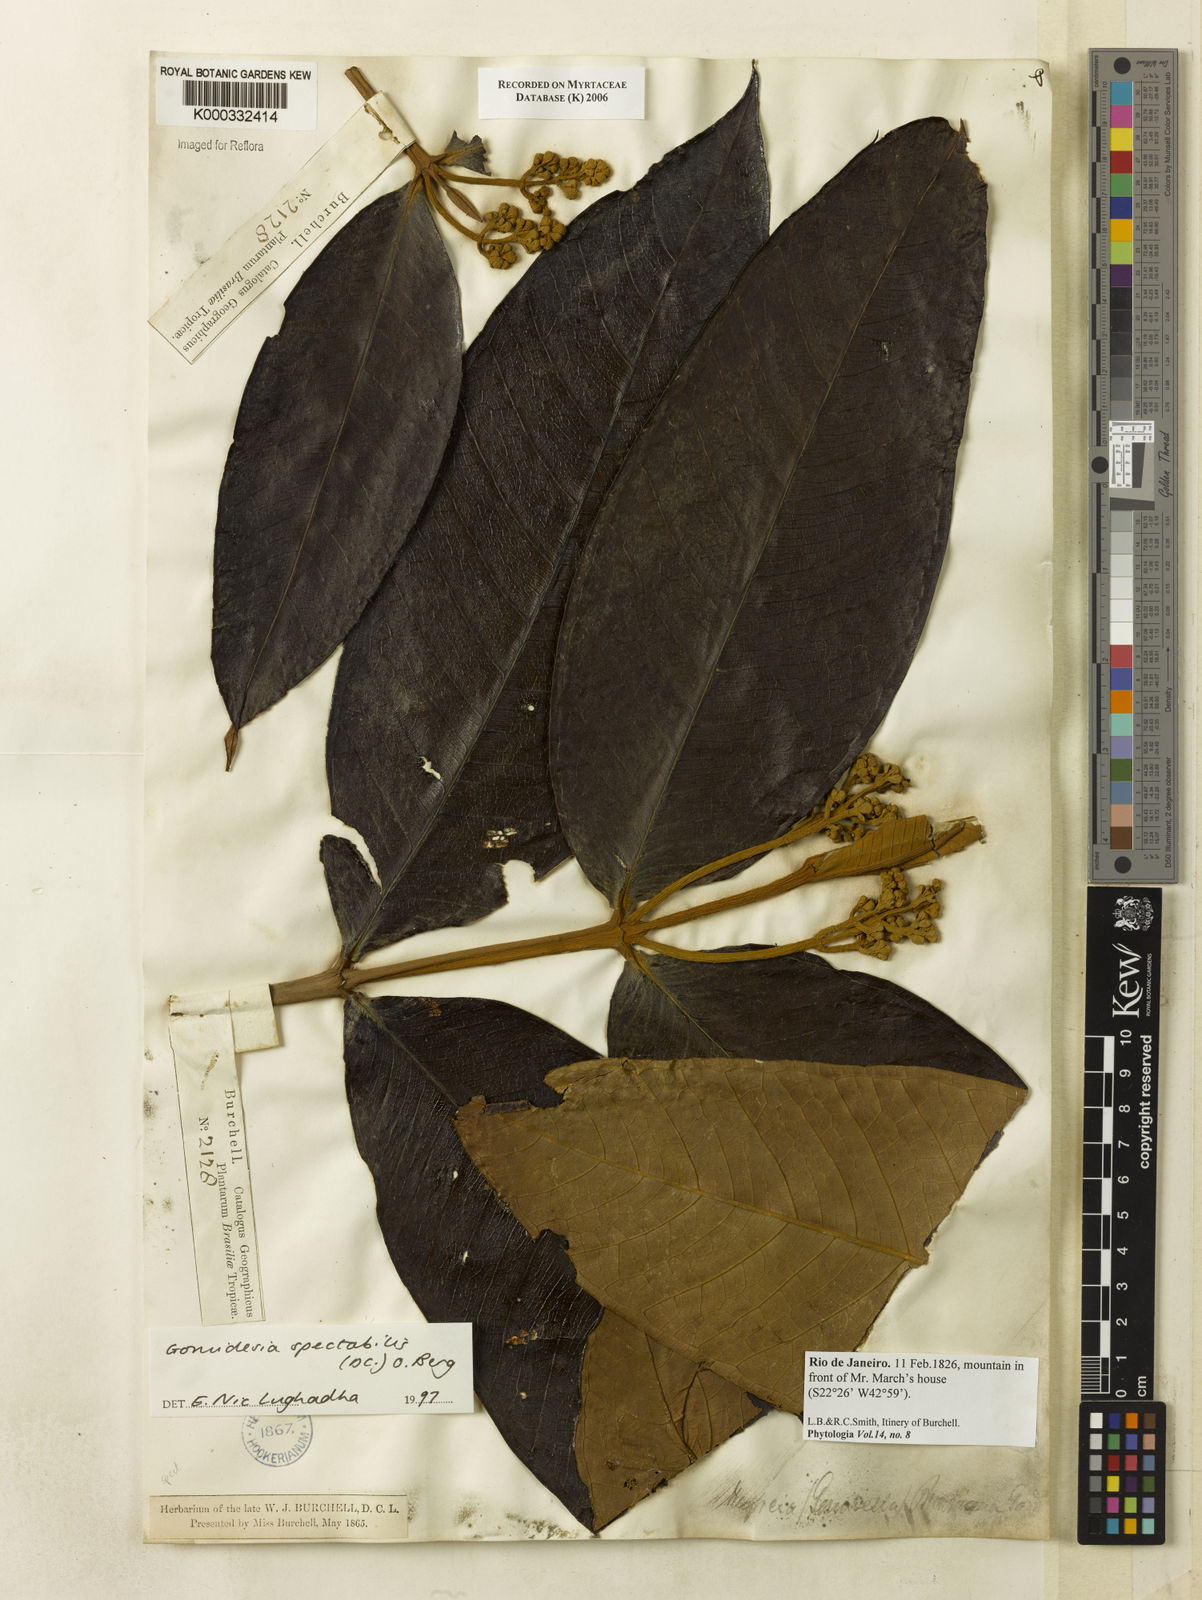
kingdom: Plantae
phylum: Tracheophyta
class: Magnoliopsida
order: Myrtales
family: Myrtaceae
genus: Myrcia
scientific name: Myrcia spectabilis
